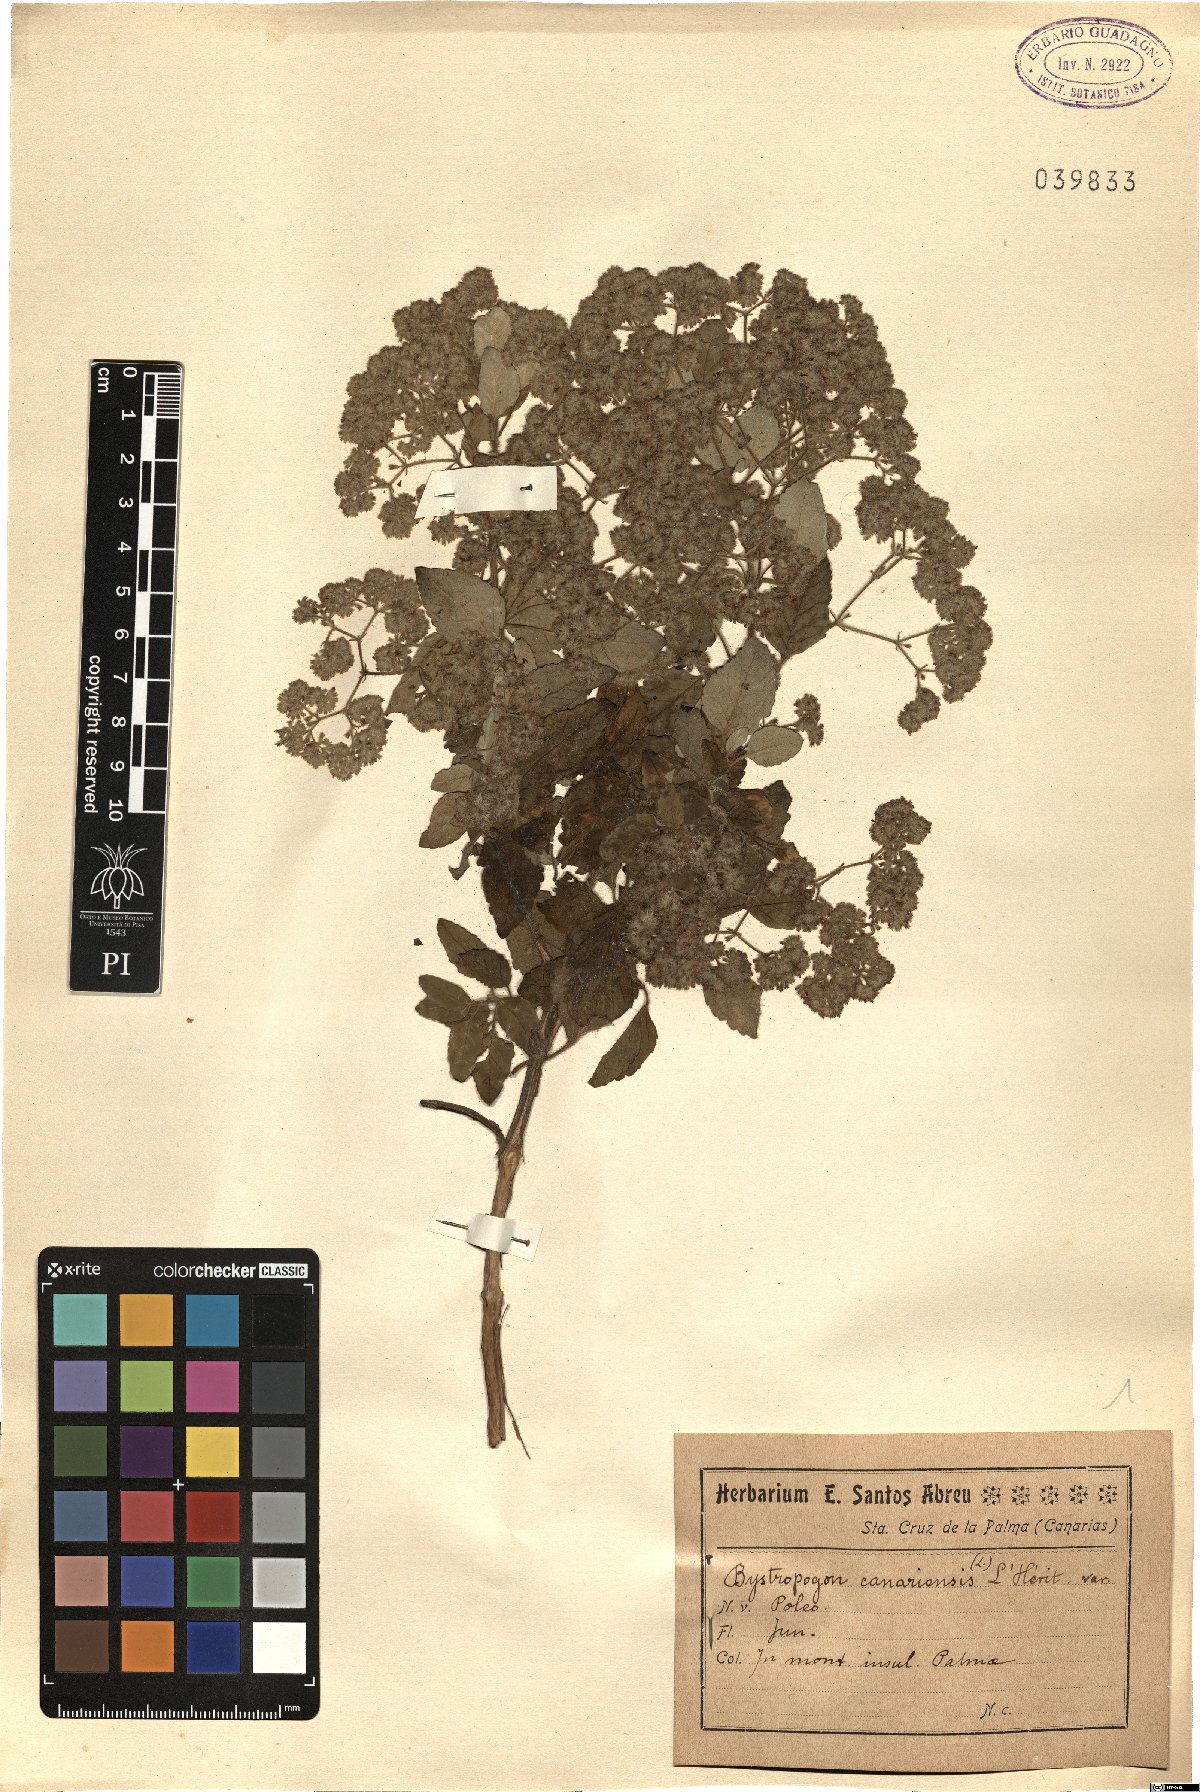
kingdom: Plantae
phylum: Tracheophyta
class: Magnoliopsida
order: Lamiales
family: Lamiaceae
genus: Bystropogon
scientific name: Bystropogon canariense
